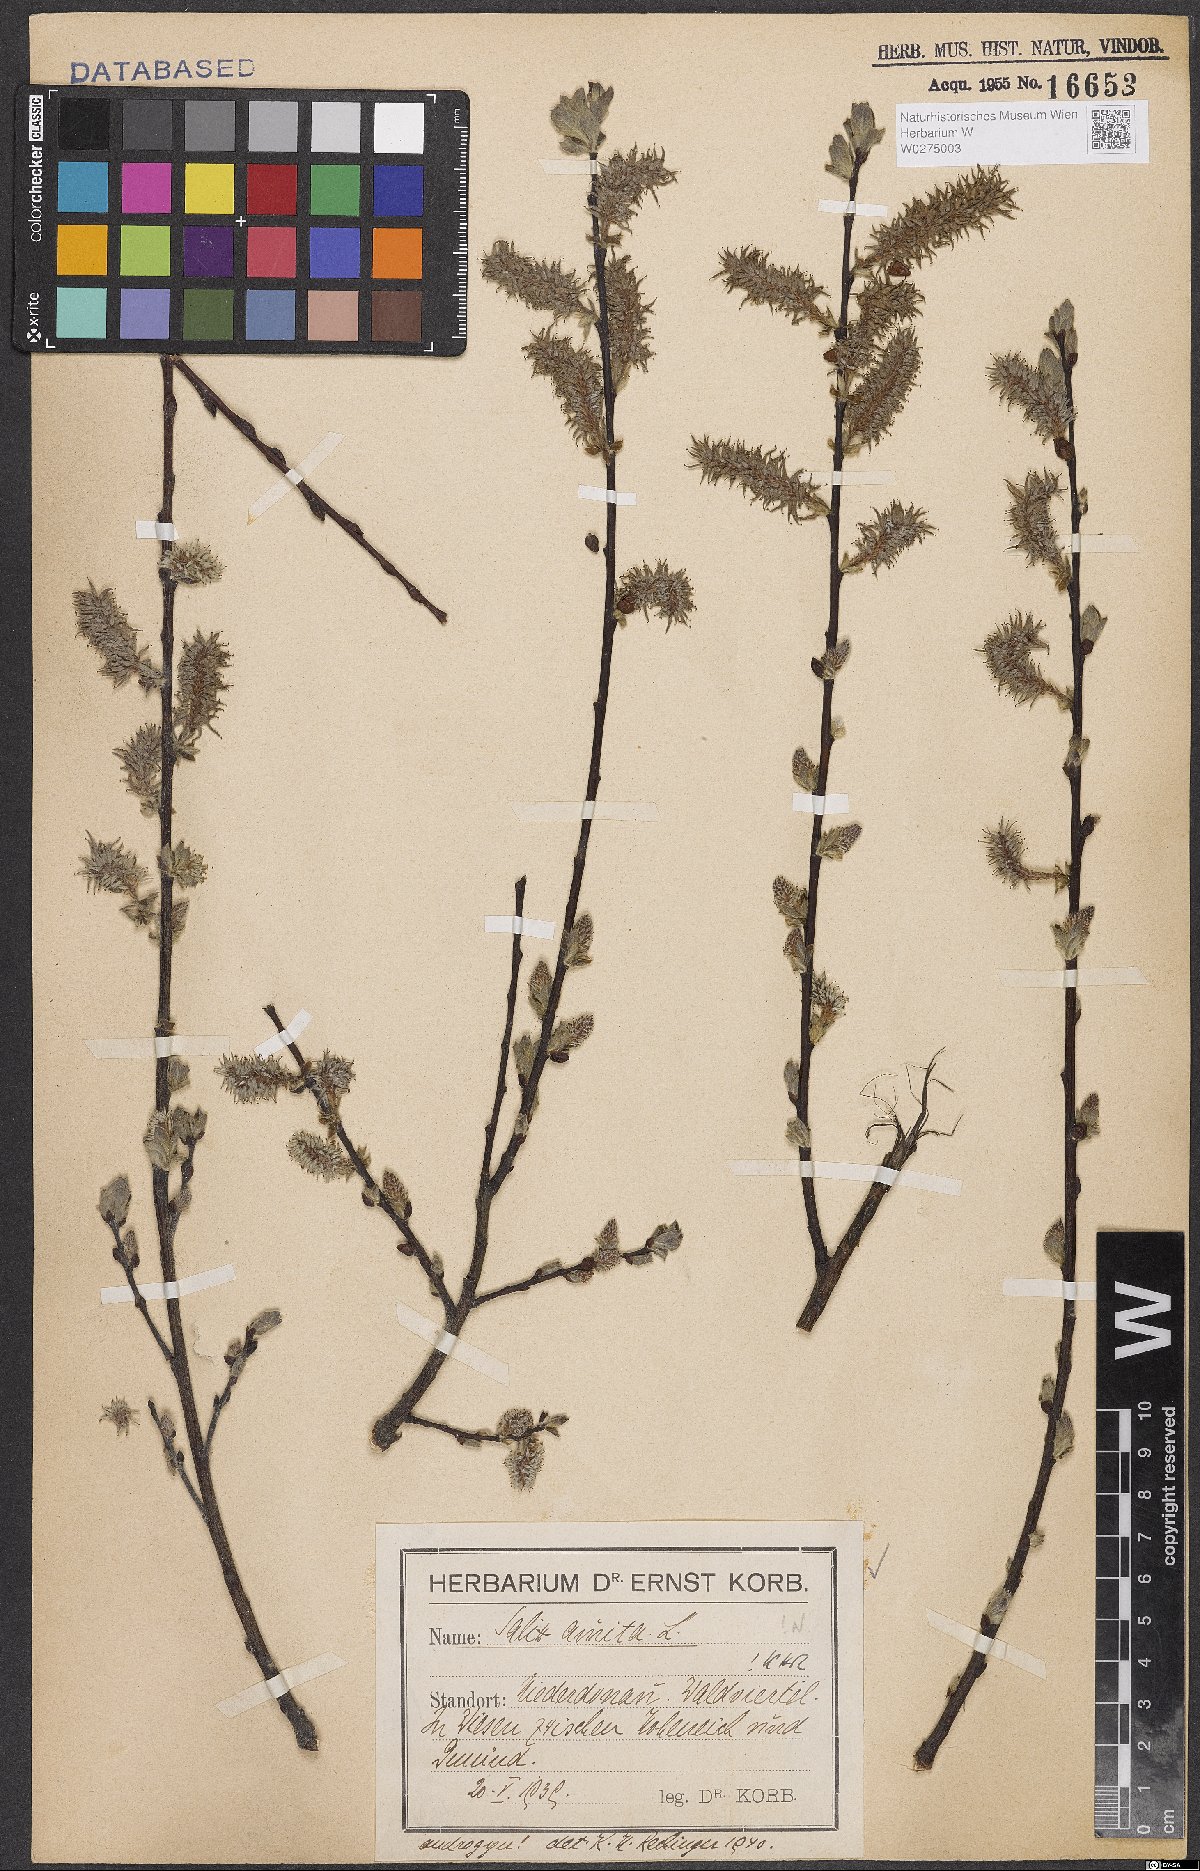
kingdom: Plantae
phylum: Tracheophyta
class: Magnoliopsida
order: Malpighiales
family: Salicaceae
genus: Salix
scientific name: Salix aurita
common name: Eared willow
